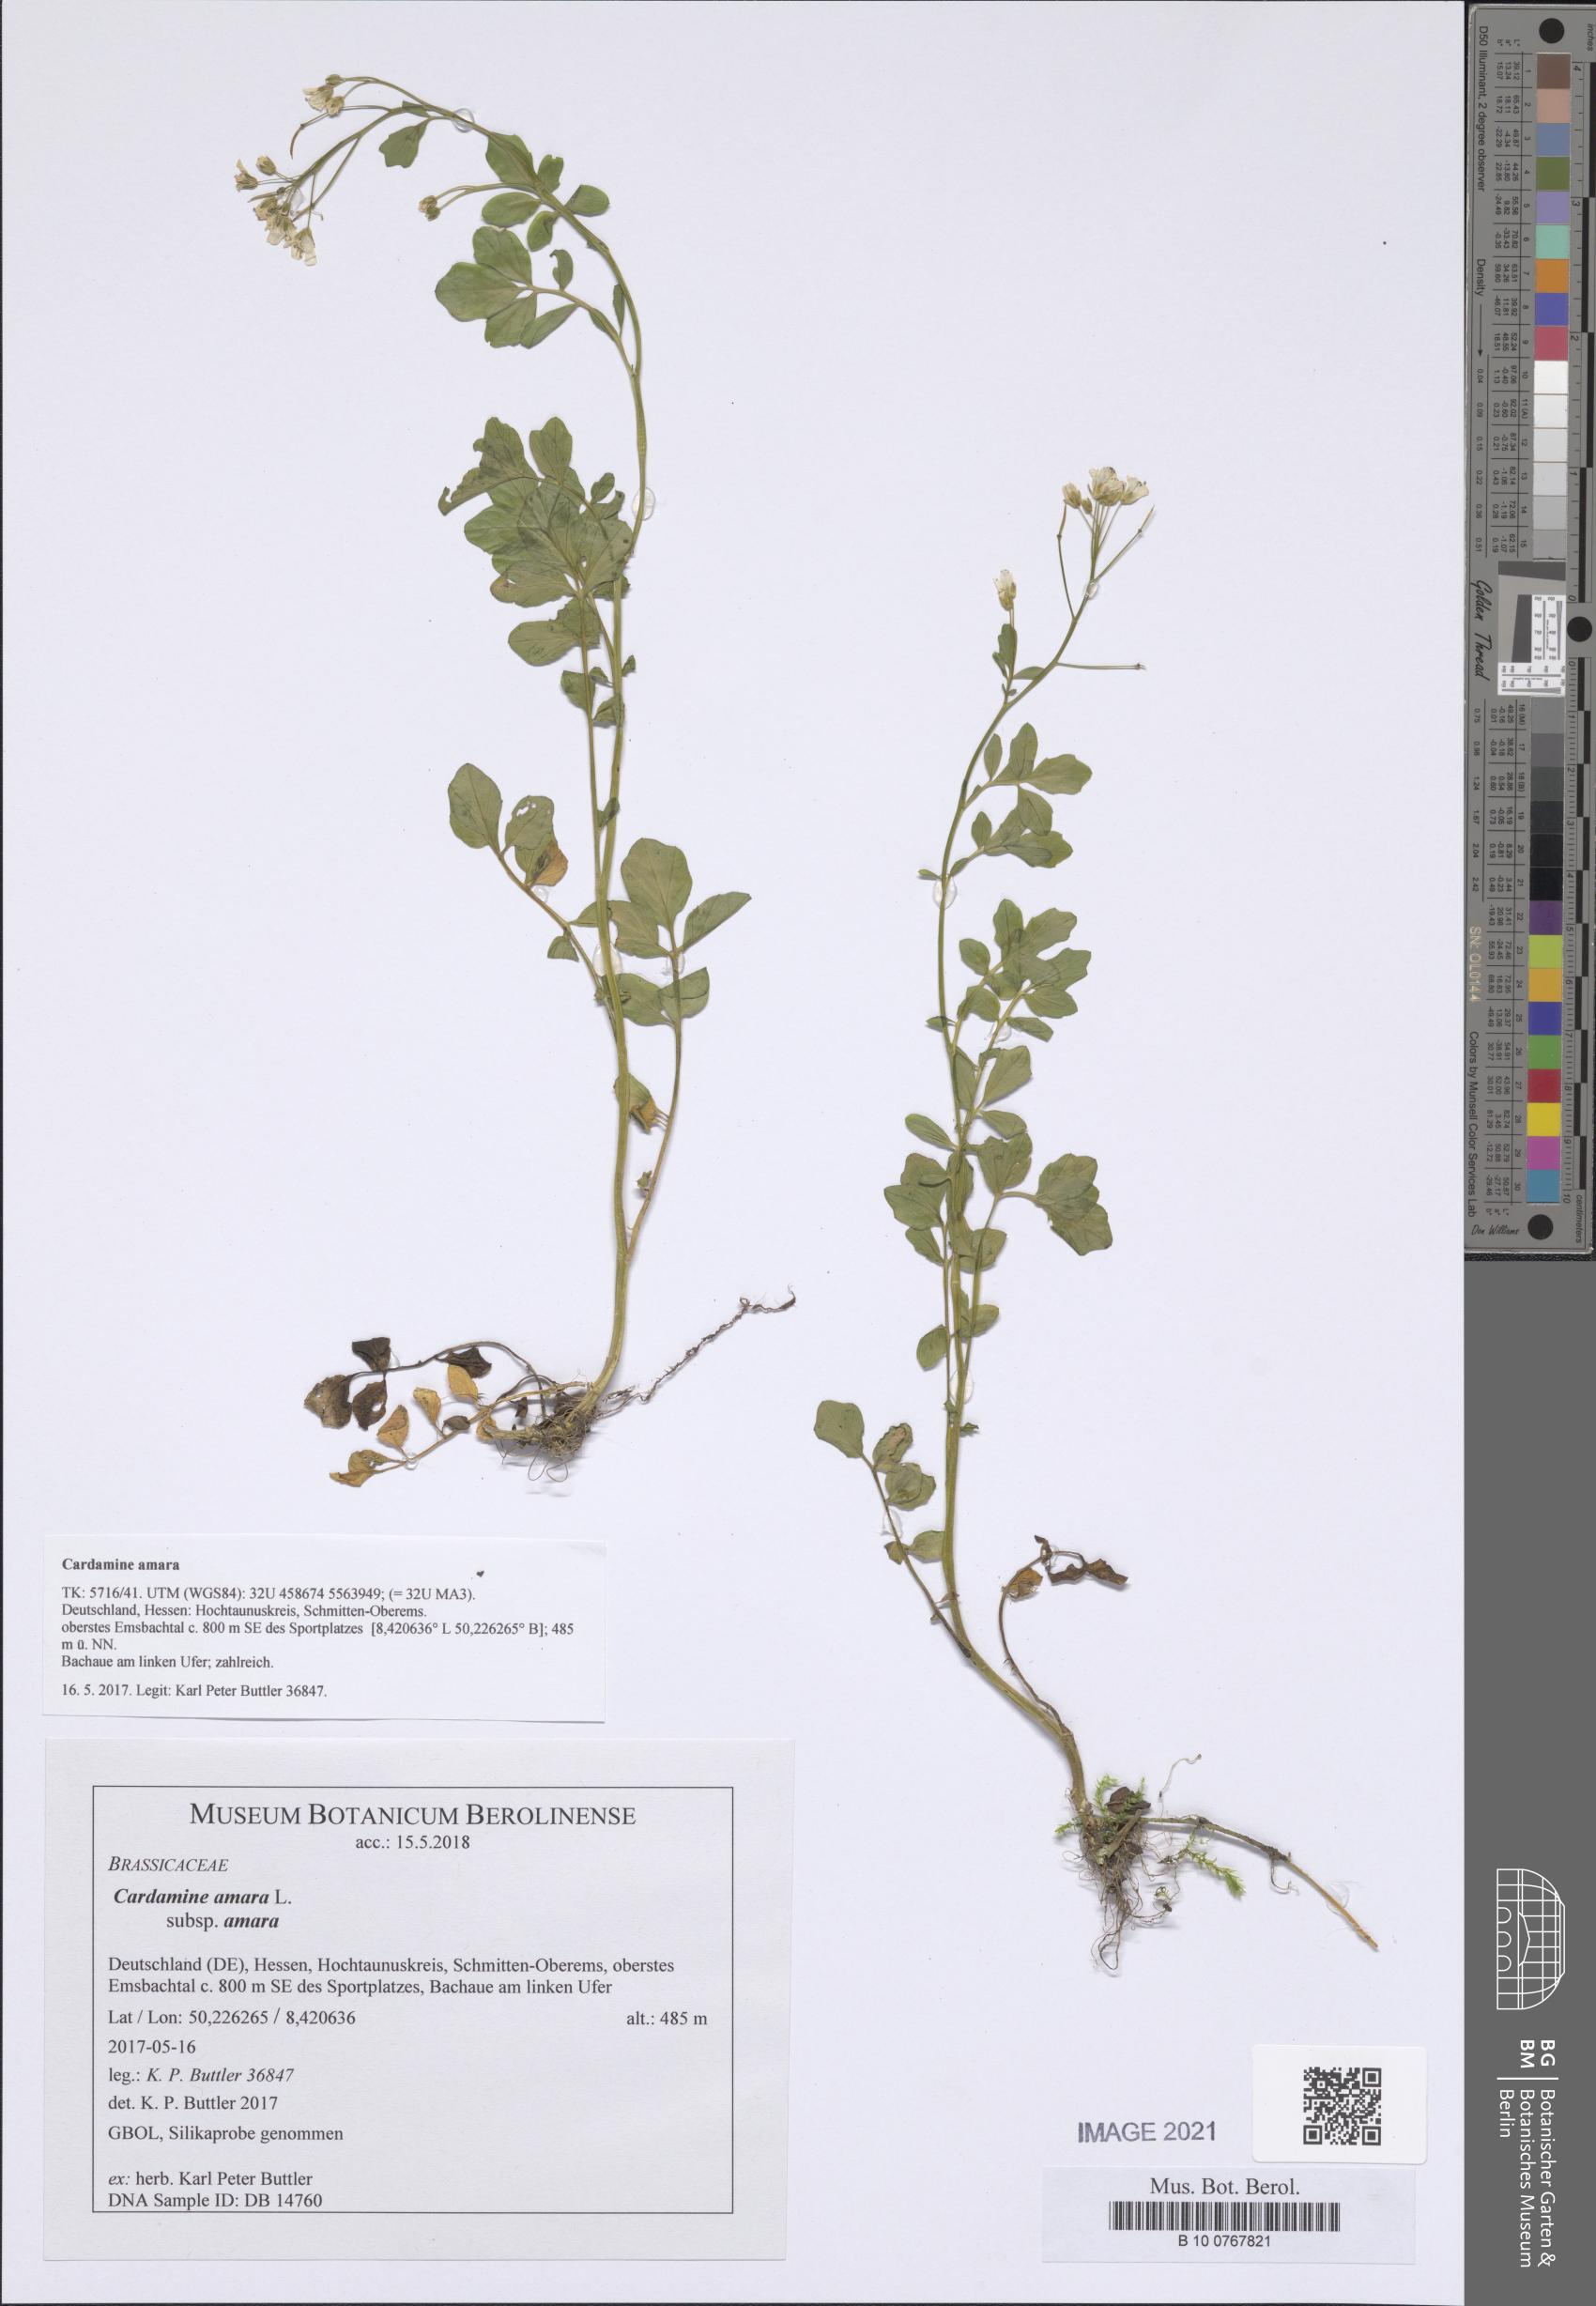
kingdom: Plantae
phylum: Tracheophyta
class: Magnoliopsida
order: Brassicales
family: Brassicaceae
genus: Cardamine
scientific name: Cardamine amara
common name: Large bitter-cress
